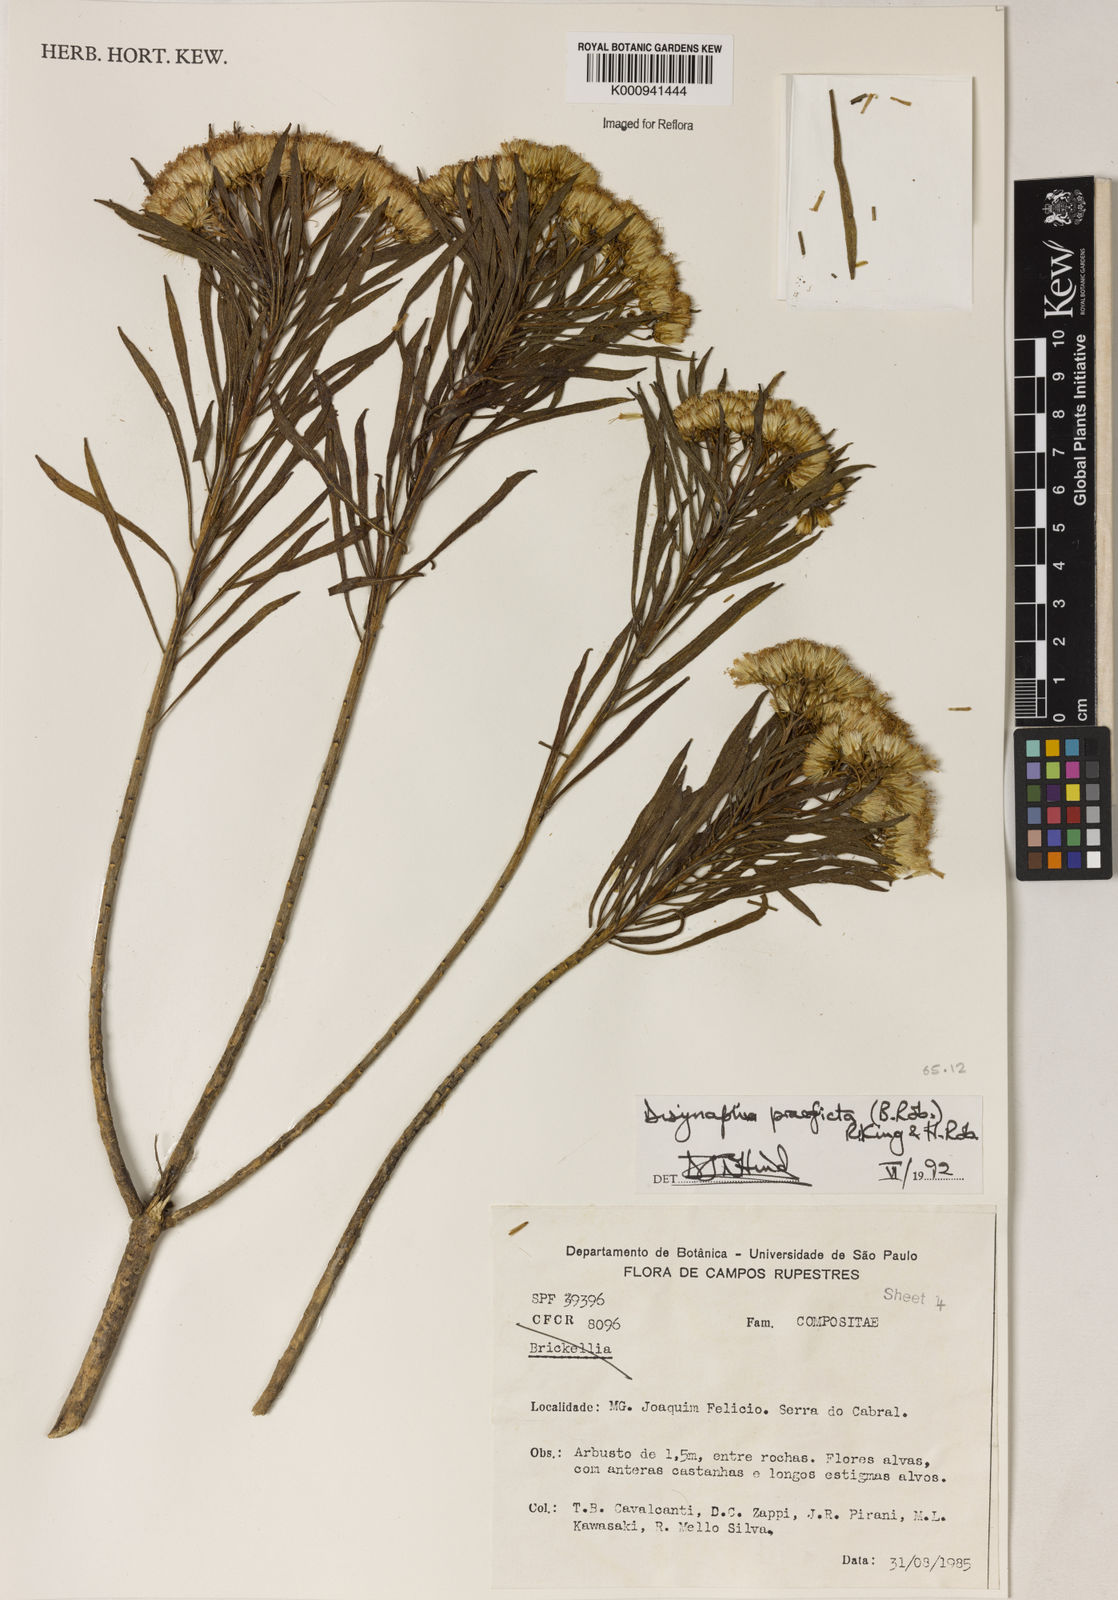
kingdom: Plantae
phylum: Tracheophyta
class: Magnoliopsida
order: Asterales
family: Asteraceae
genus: Disynaphia
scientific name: Disynaphia praeficta
